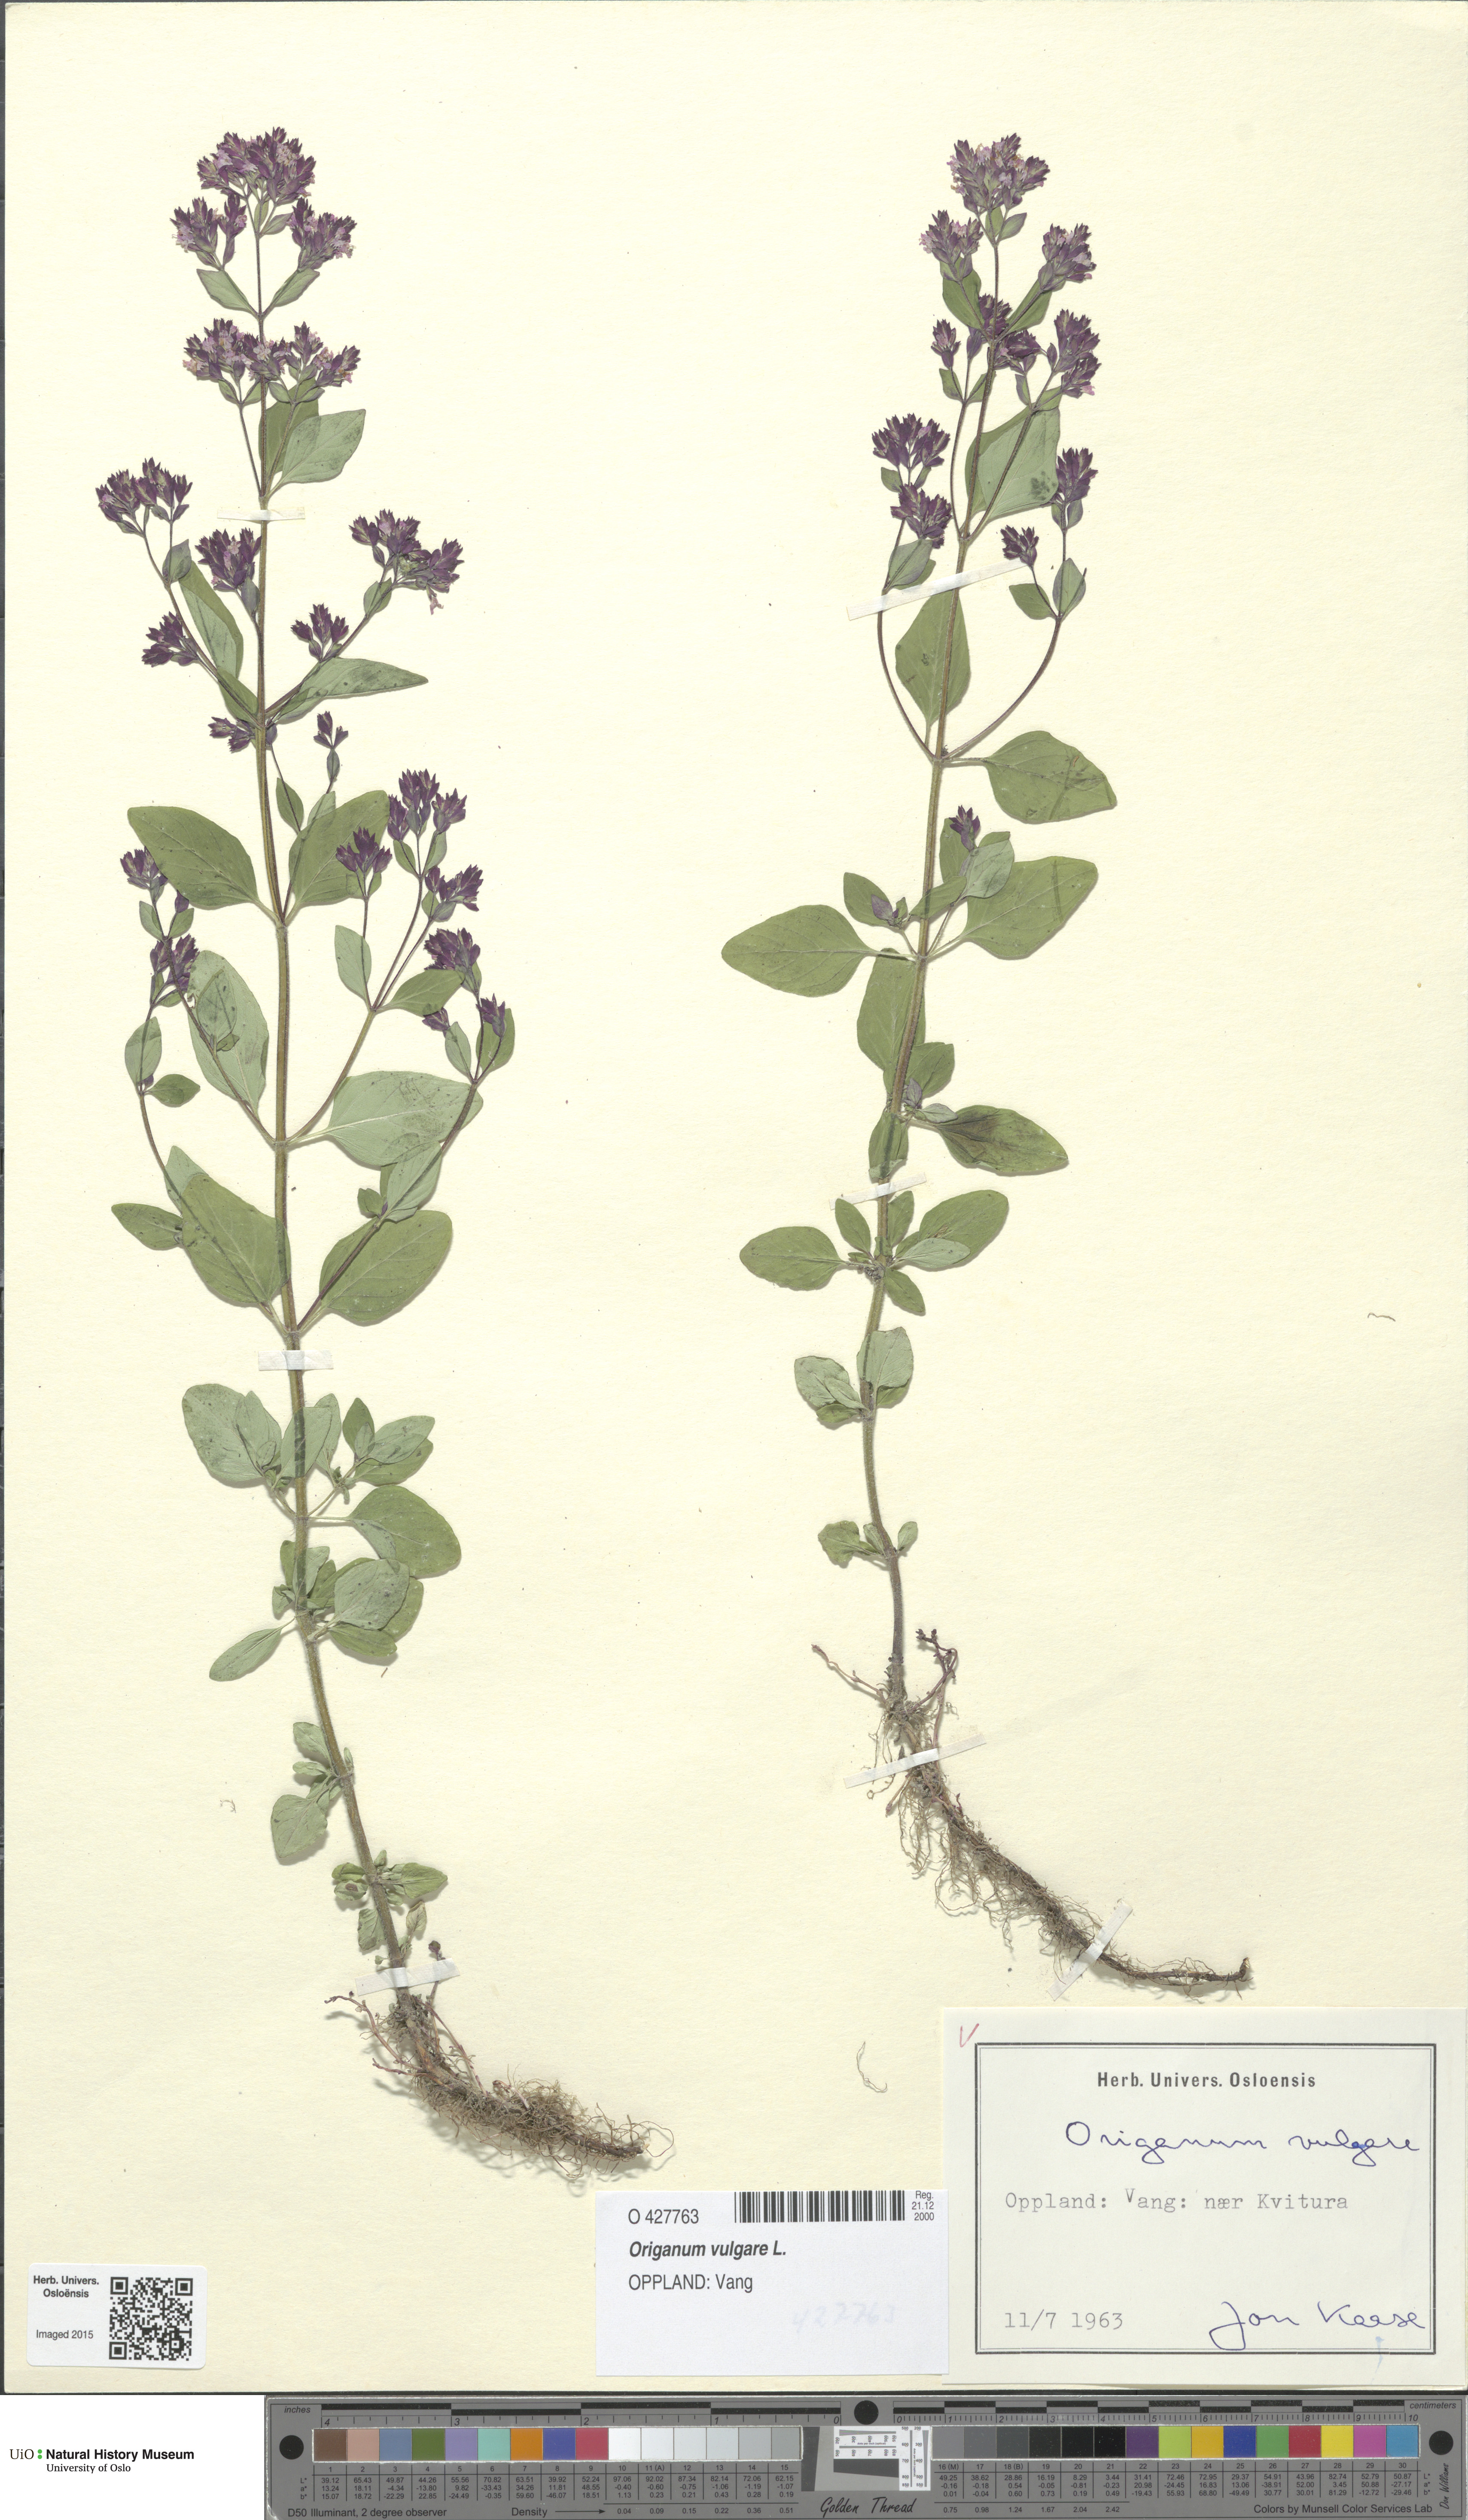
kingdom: Plantae
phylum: Tracheophyta
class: Magnoliopsida
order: Lamiales
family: Lamiaceae
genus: Origanum
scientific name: Origanum vulgare
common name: Wild marjoram
